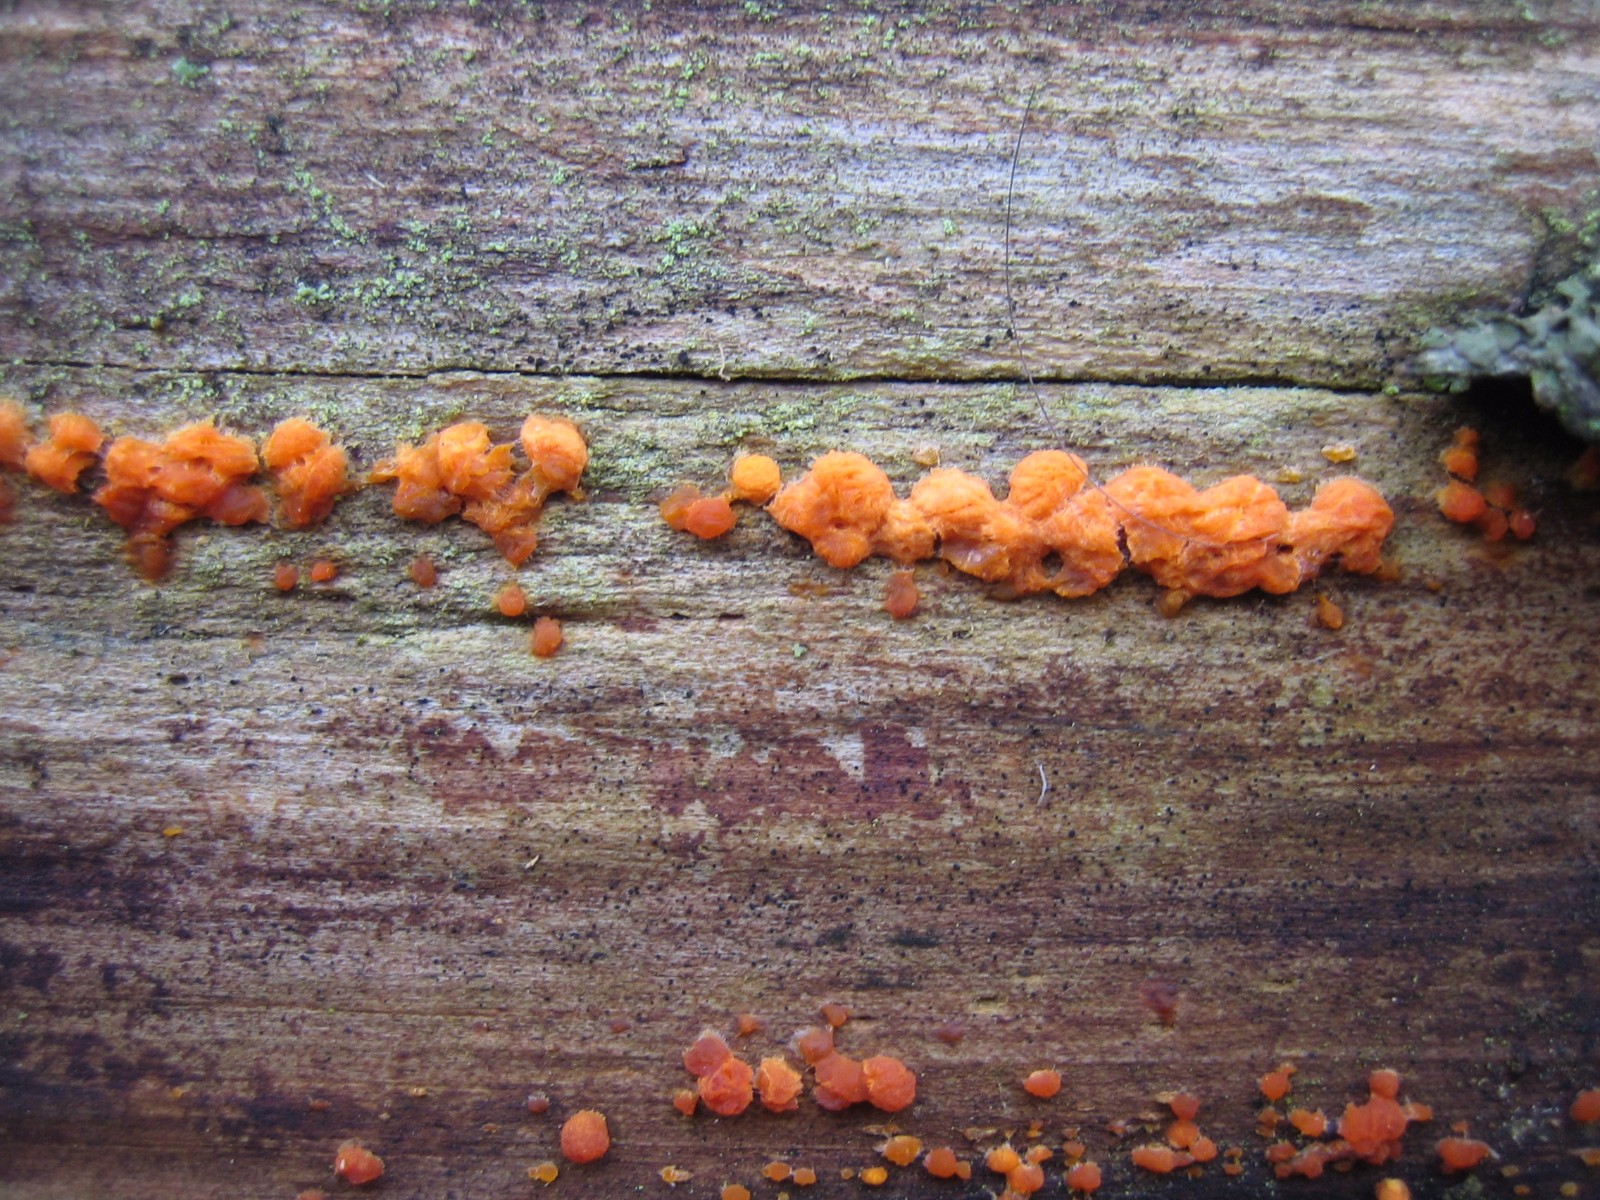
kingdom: Fungi
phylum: Basidiomycota
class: Dacrymycetes
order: Dacrymycetales
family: Dacrymycetaceae
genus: Dacrymyces
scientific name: Dacrymyces stillatus
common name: almindelig tåresvamp
